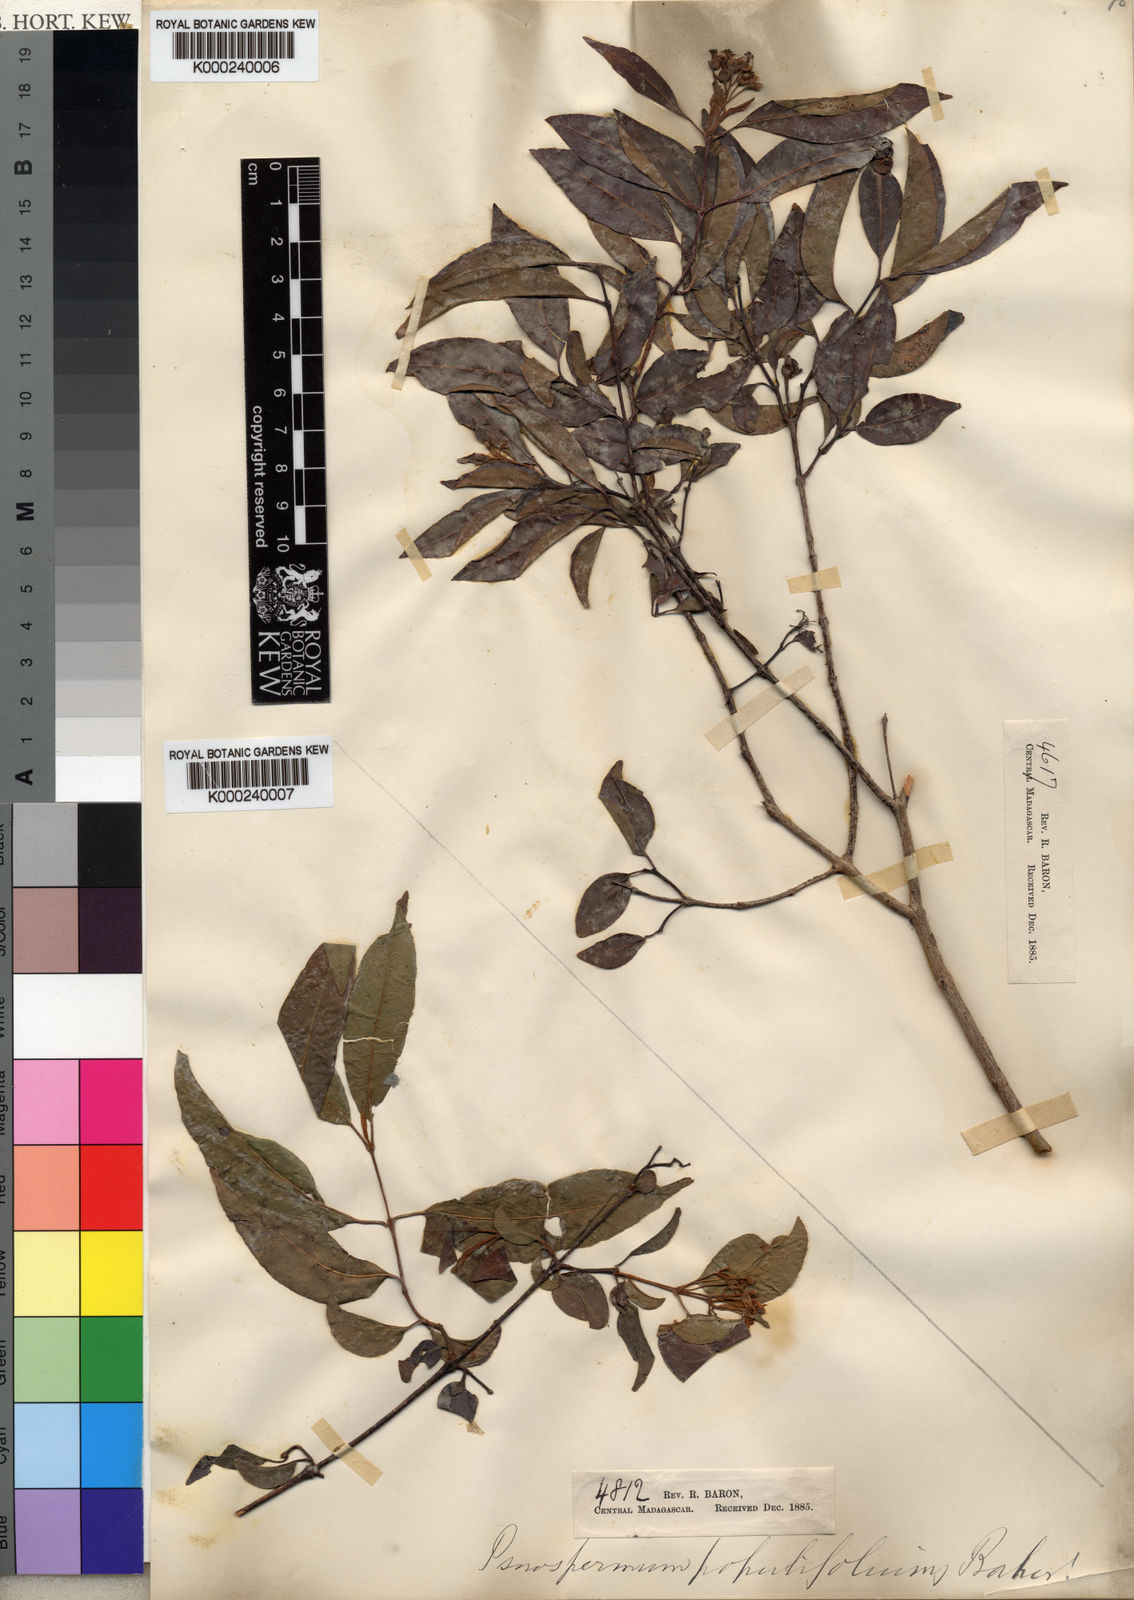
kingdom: Plantae
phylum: Tracheophyta
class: Magnoliopsida
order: Malpighiales
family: Hypericaceae
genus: Harungana
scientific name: Harungana
